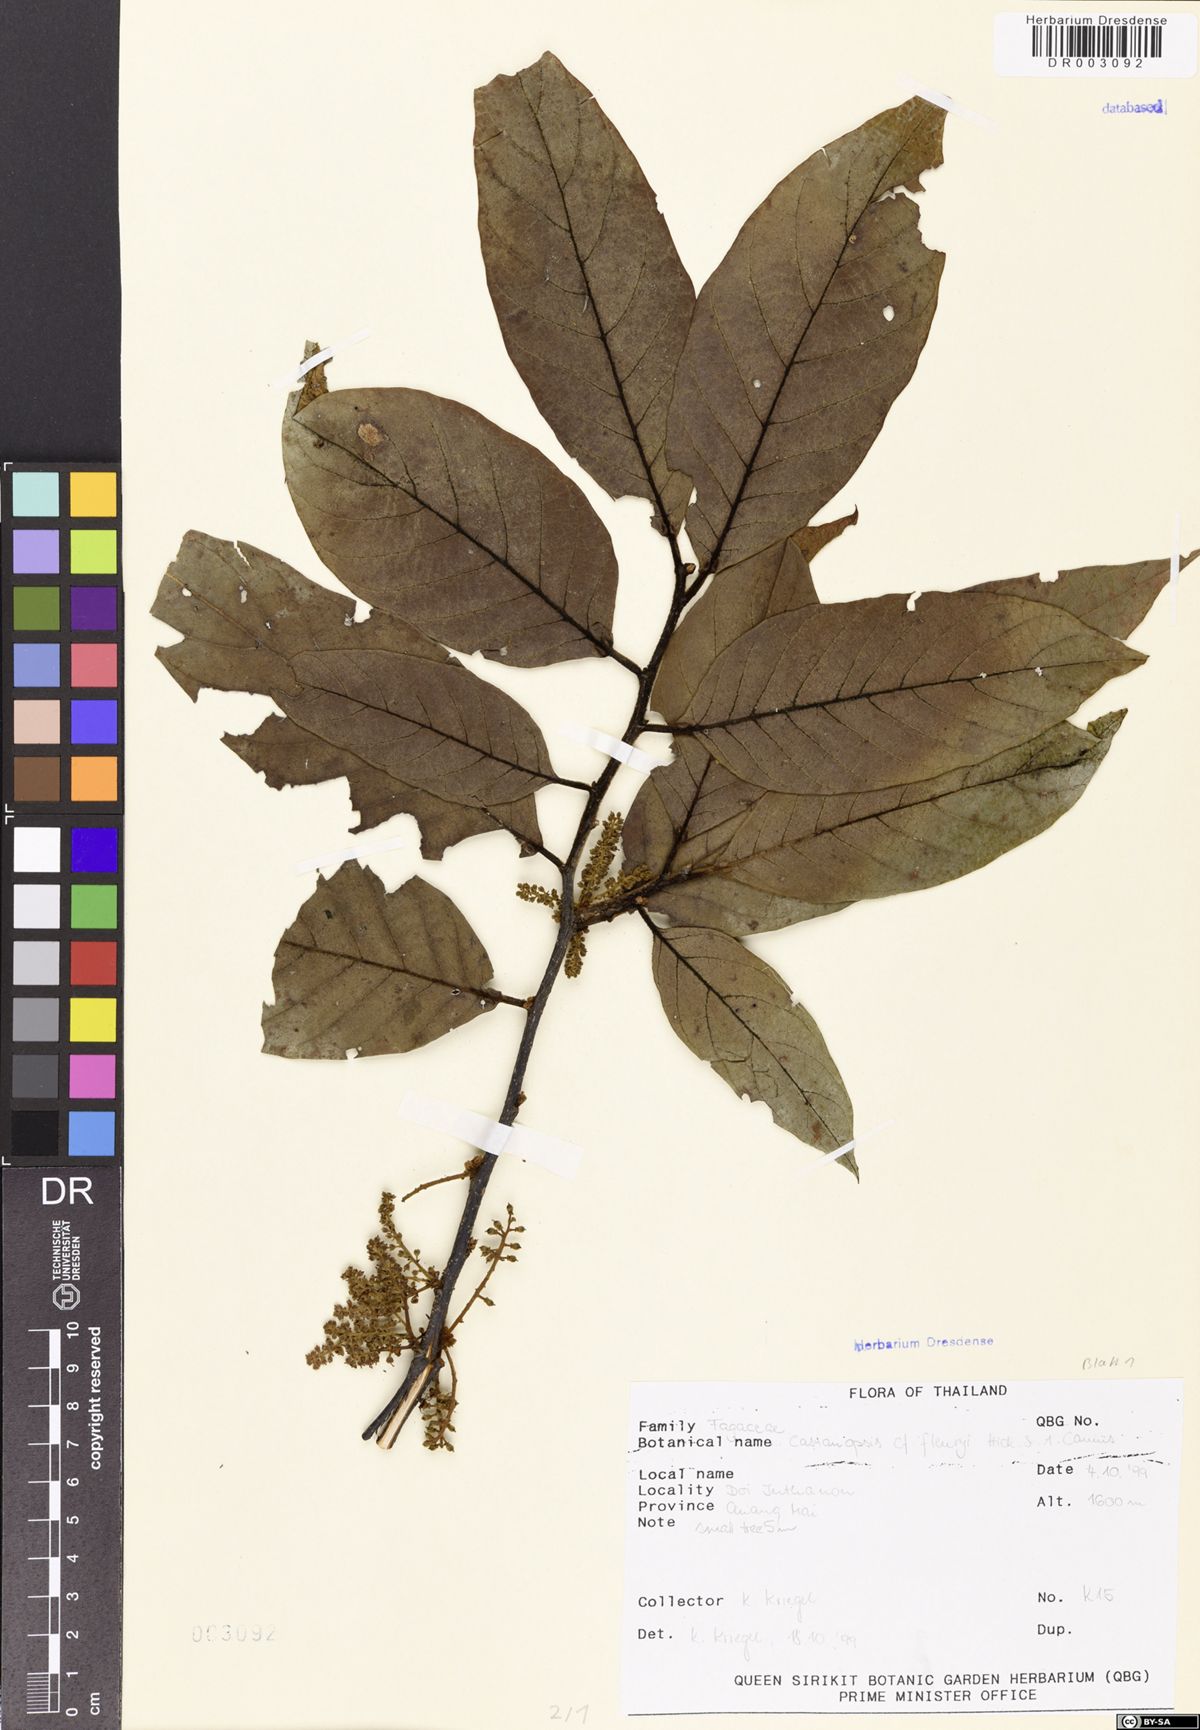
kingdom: Plantae
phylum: Tracheophyta
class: Magnoliopsida
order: Fagales
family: Fagaceae
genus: Castanopsis
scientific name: Castanopsis fleuryi
